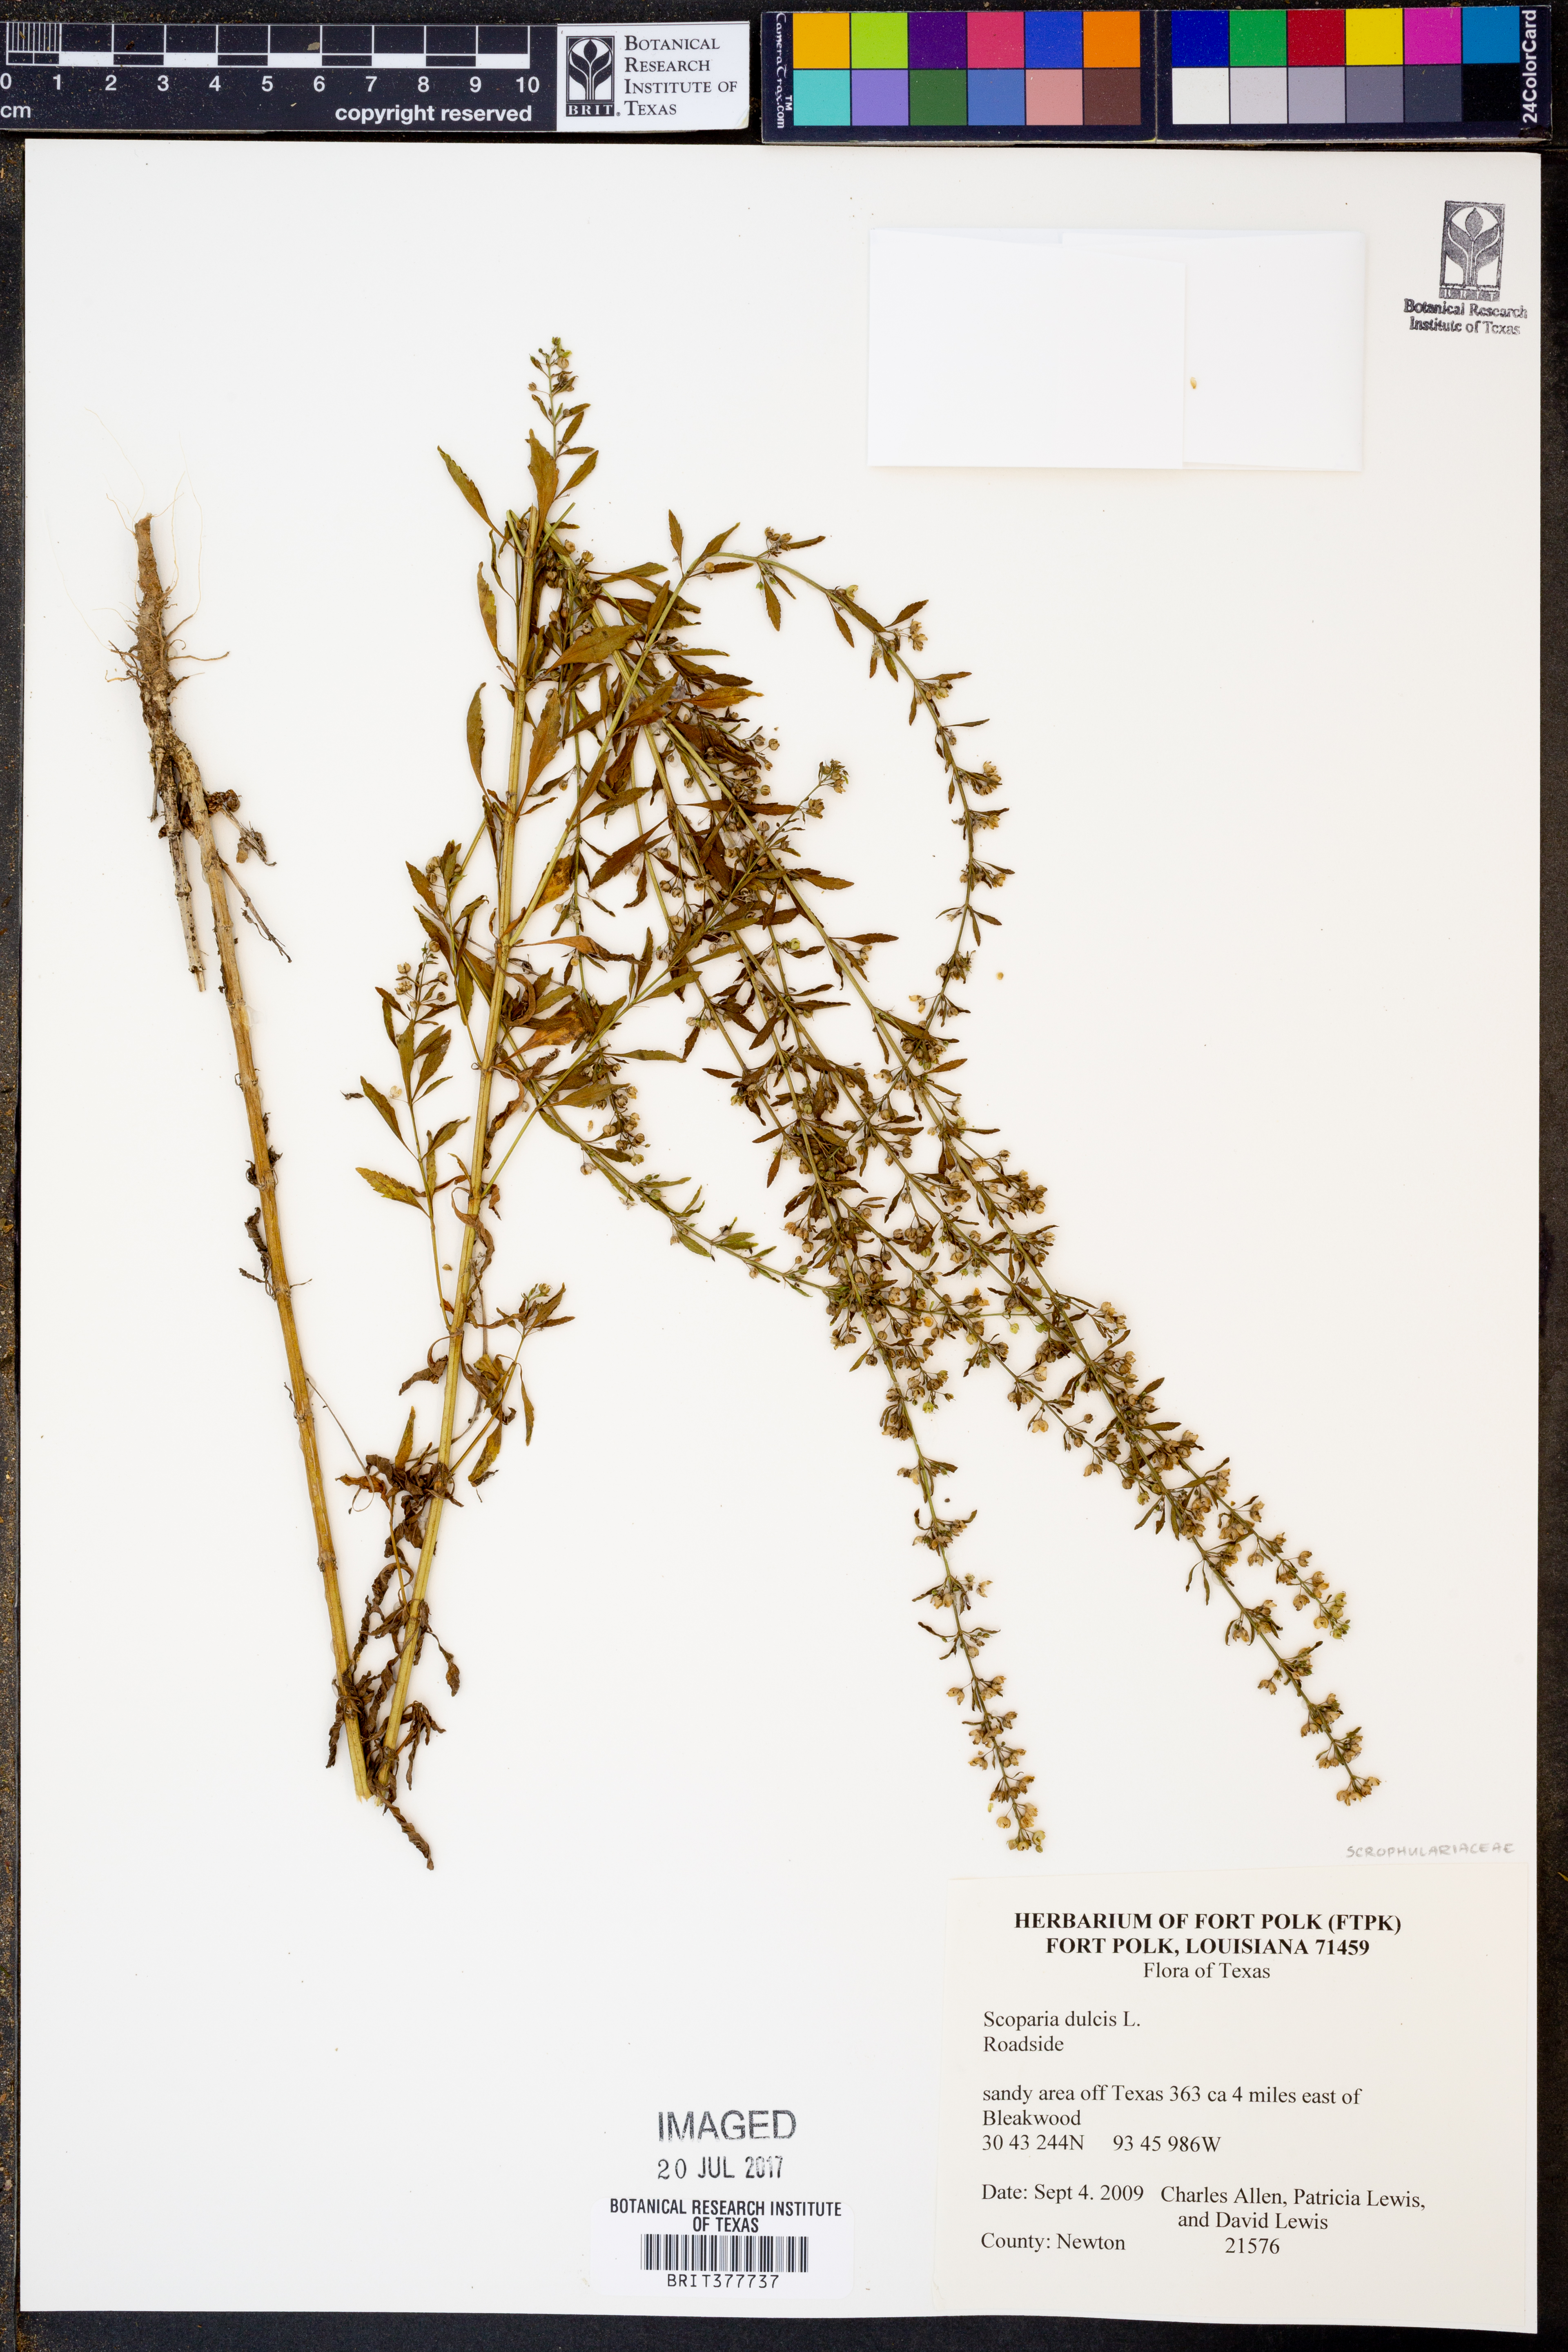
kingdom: Plantae
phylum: Tracheophyta
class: Magnoliopsida
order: Lamiales
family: Plantaginaceae
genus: Scoparia
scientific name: Scoparia dulcis
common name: Scoparia-weed
